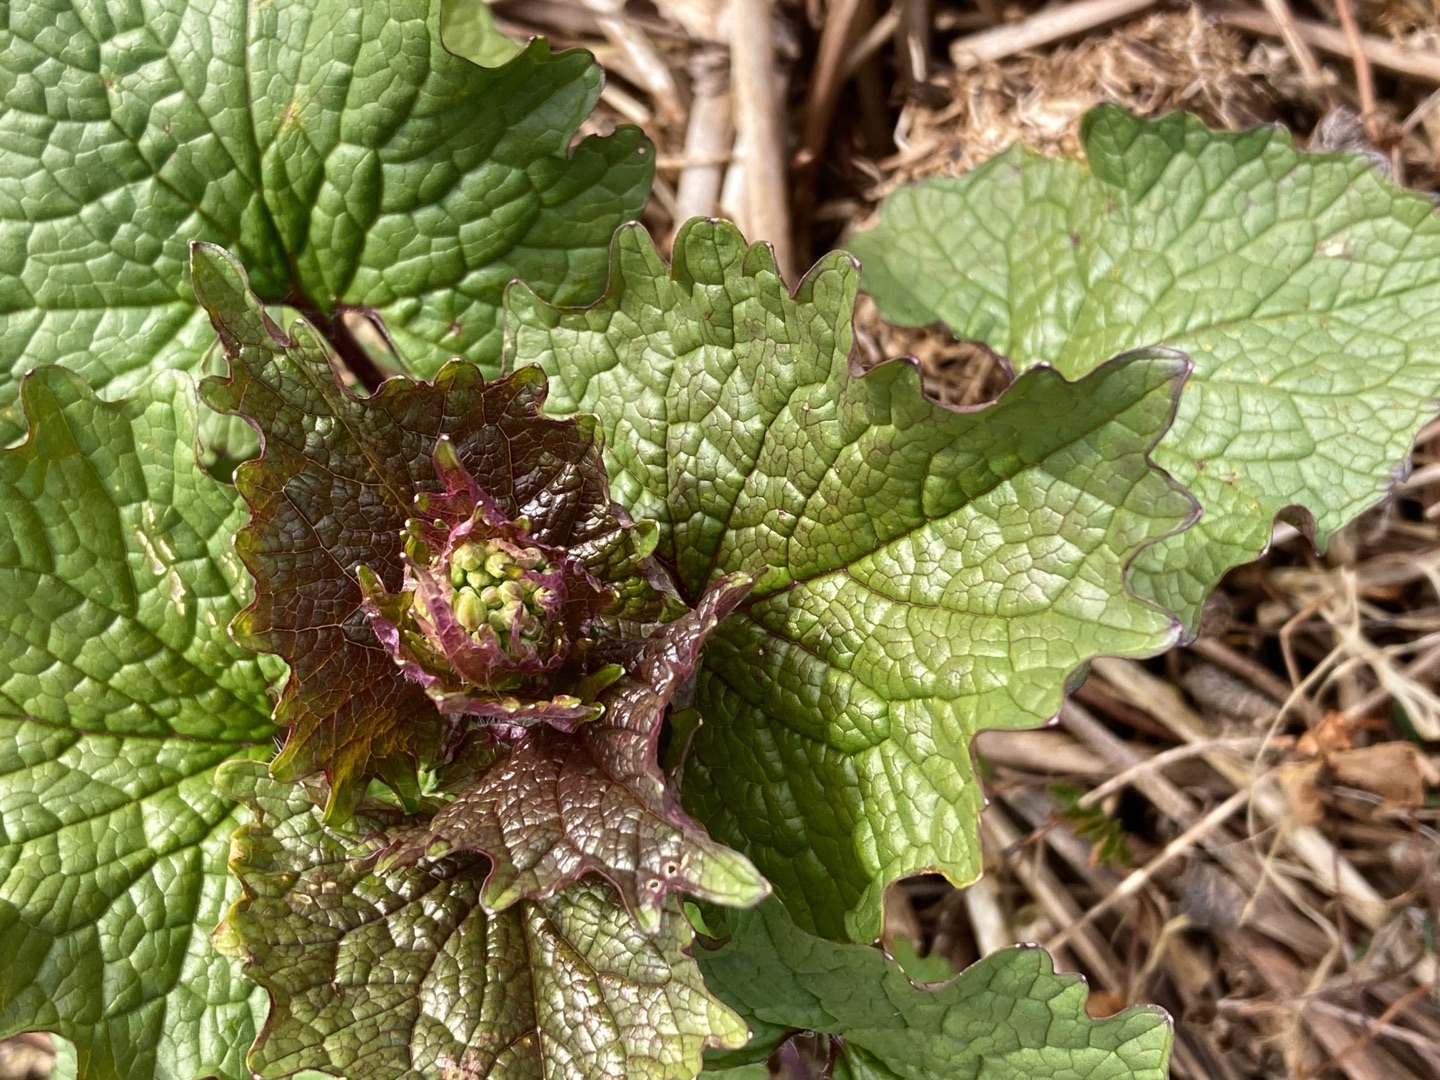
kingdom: Plantae
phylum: Tracheophyta
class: Magnoliopsida
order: Brassicales
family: Brassicaceae
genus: Alliaria
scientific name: Alliaria petiolata
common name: Løgkarse
